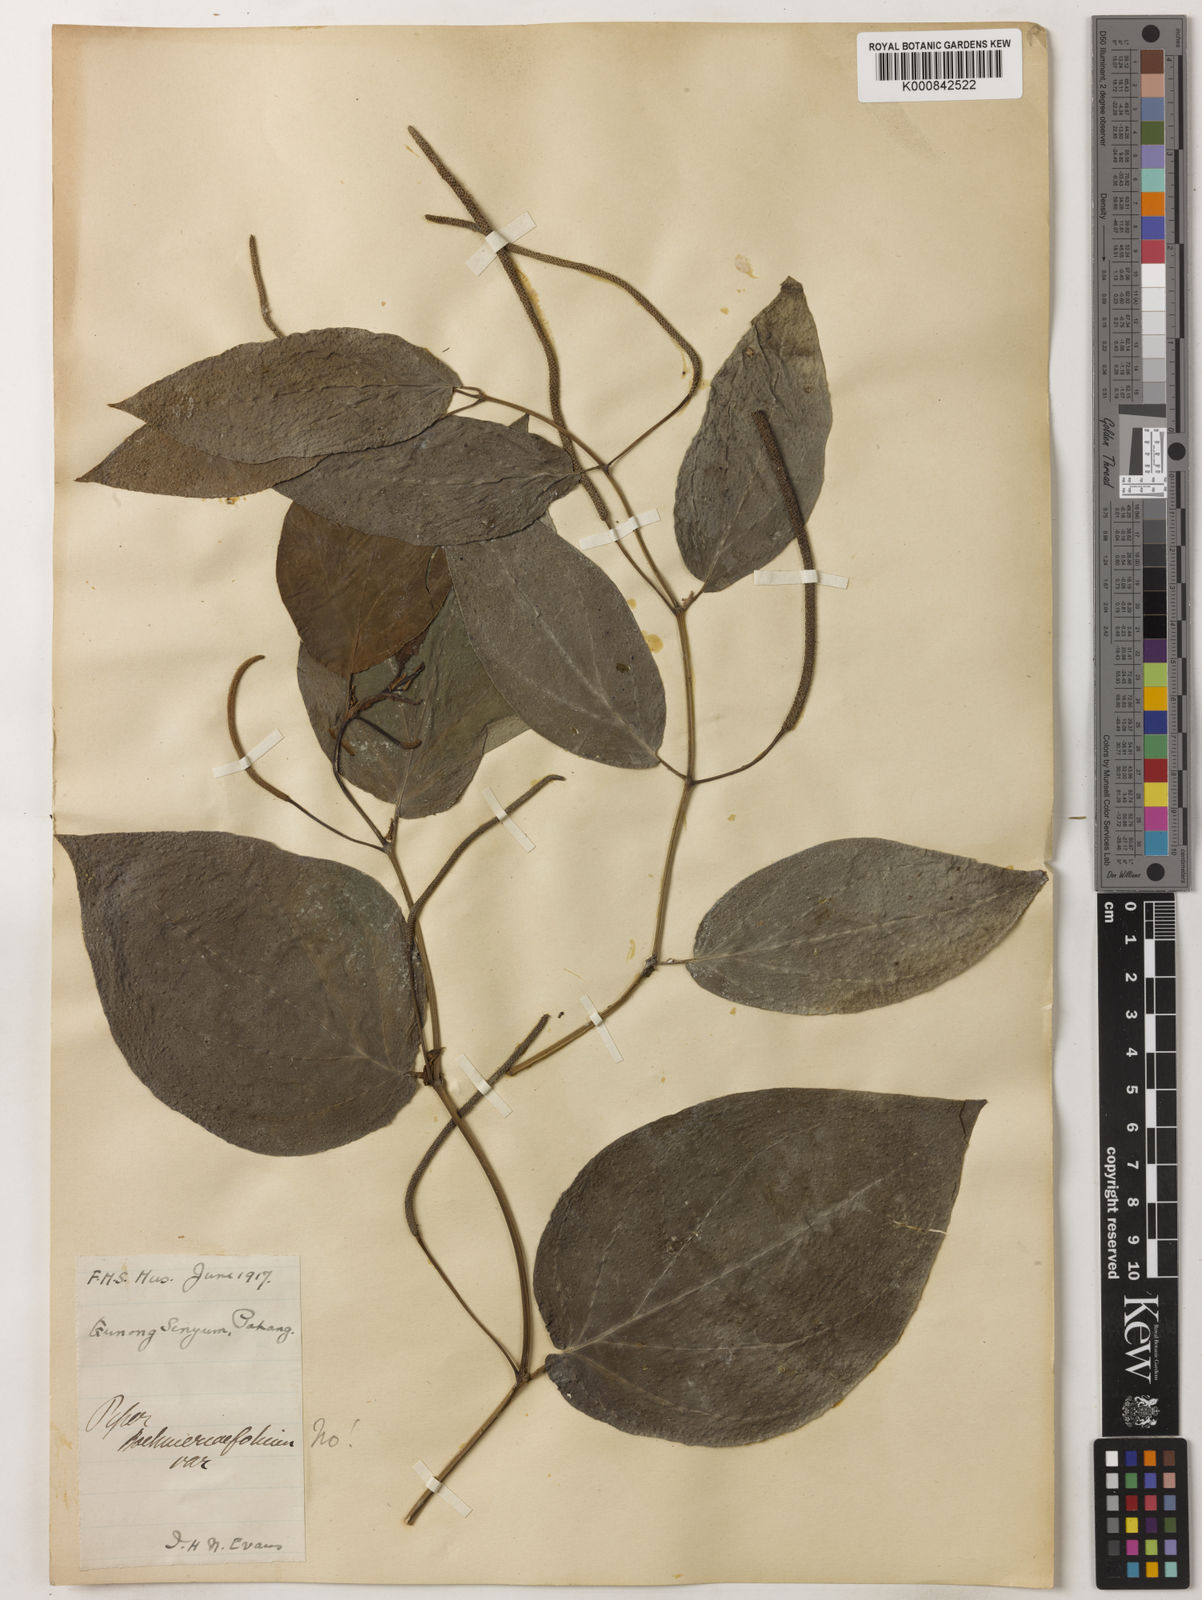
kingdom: Plantae
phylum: Tracheophyta
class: Magnoliopsida
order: Piperales
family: Piperaceae
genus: Piper
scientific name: Piper
